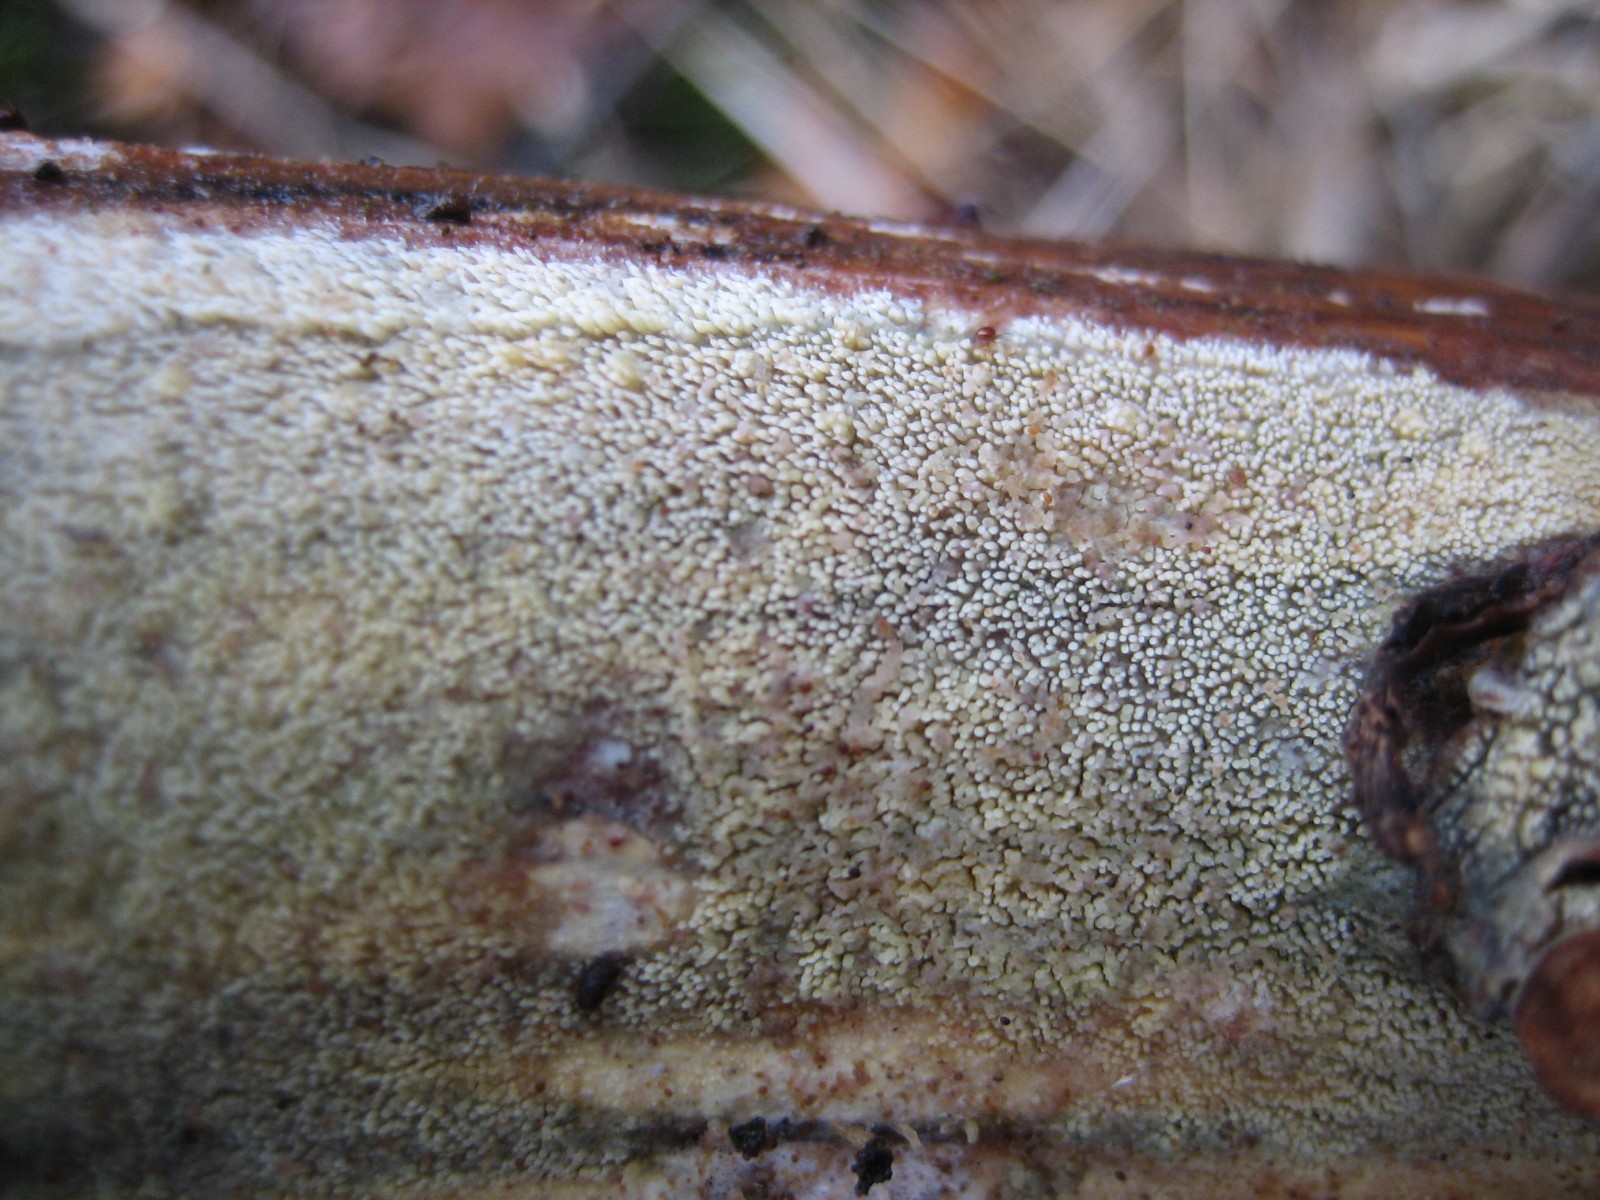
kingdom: Fungi
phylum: Basidiomycota
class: Agaricomycetes
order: Polyporales
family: Meruliaceae
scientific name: Meruliaceae
